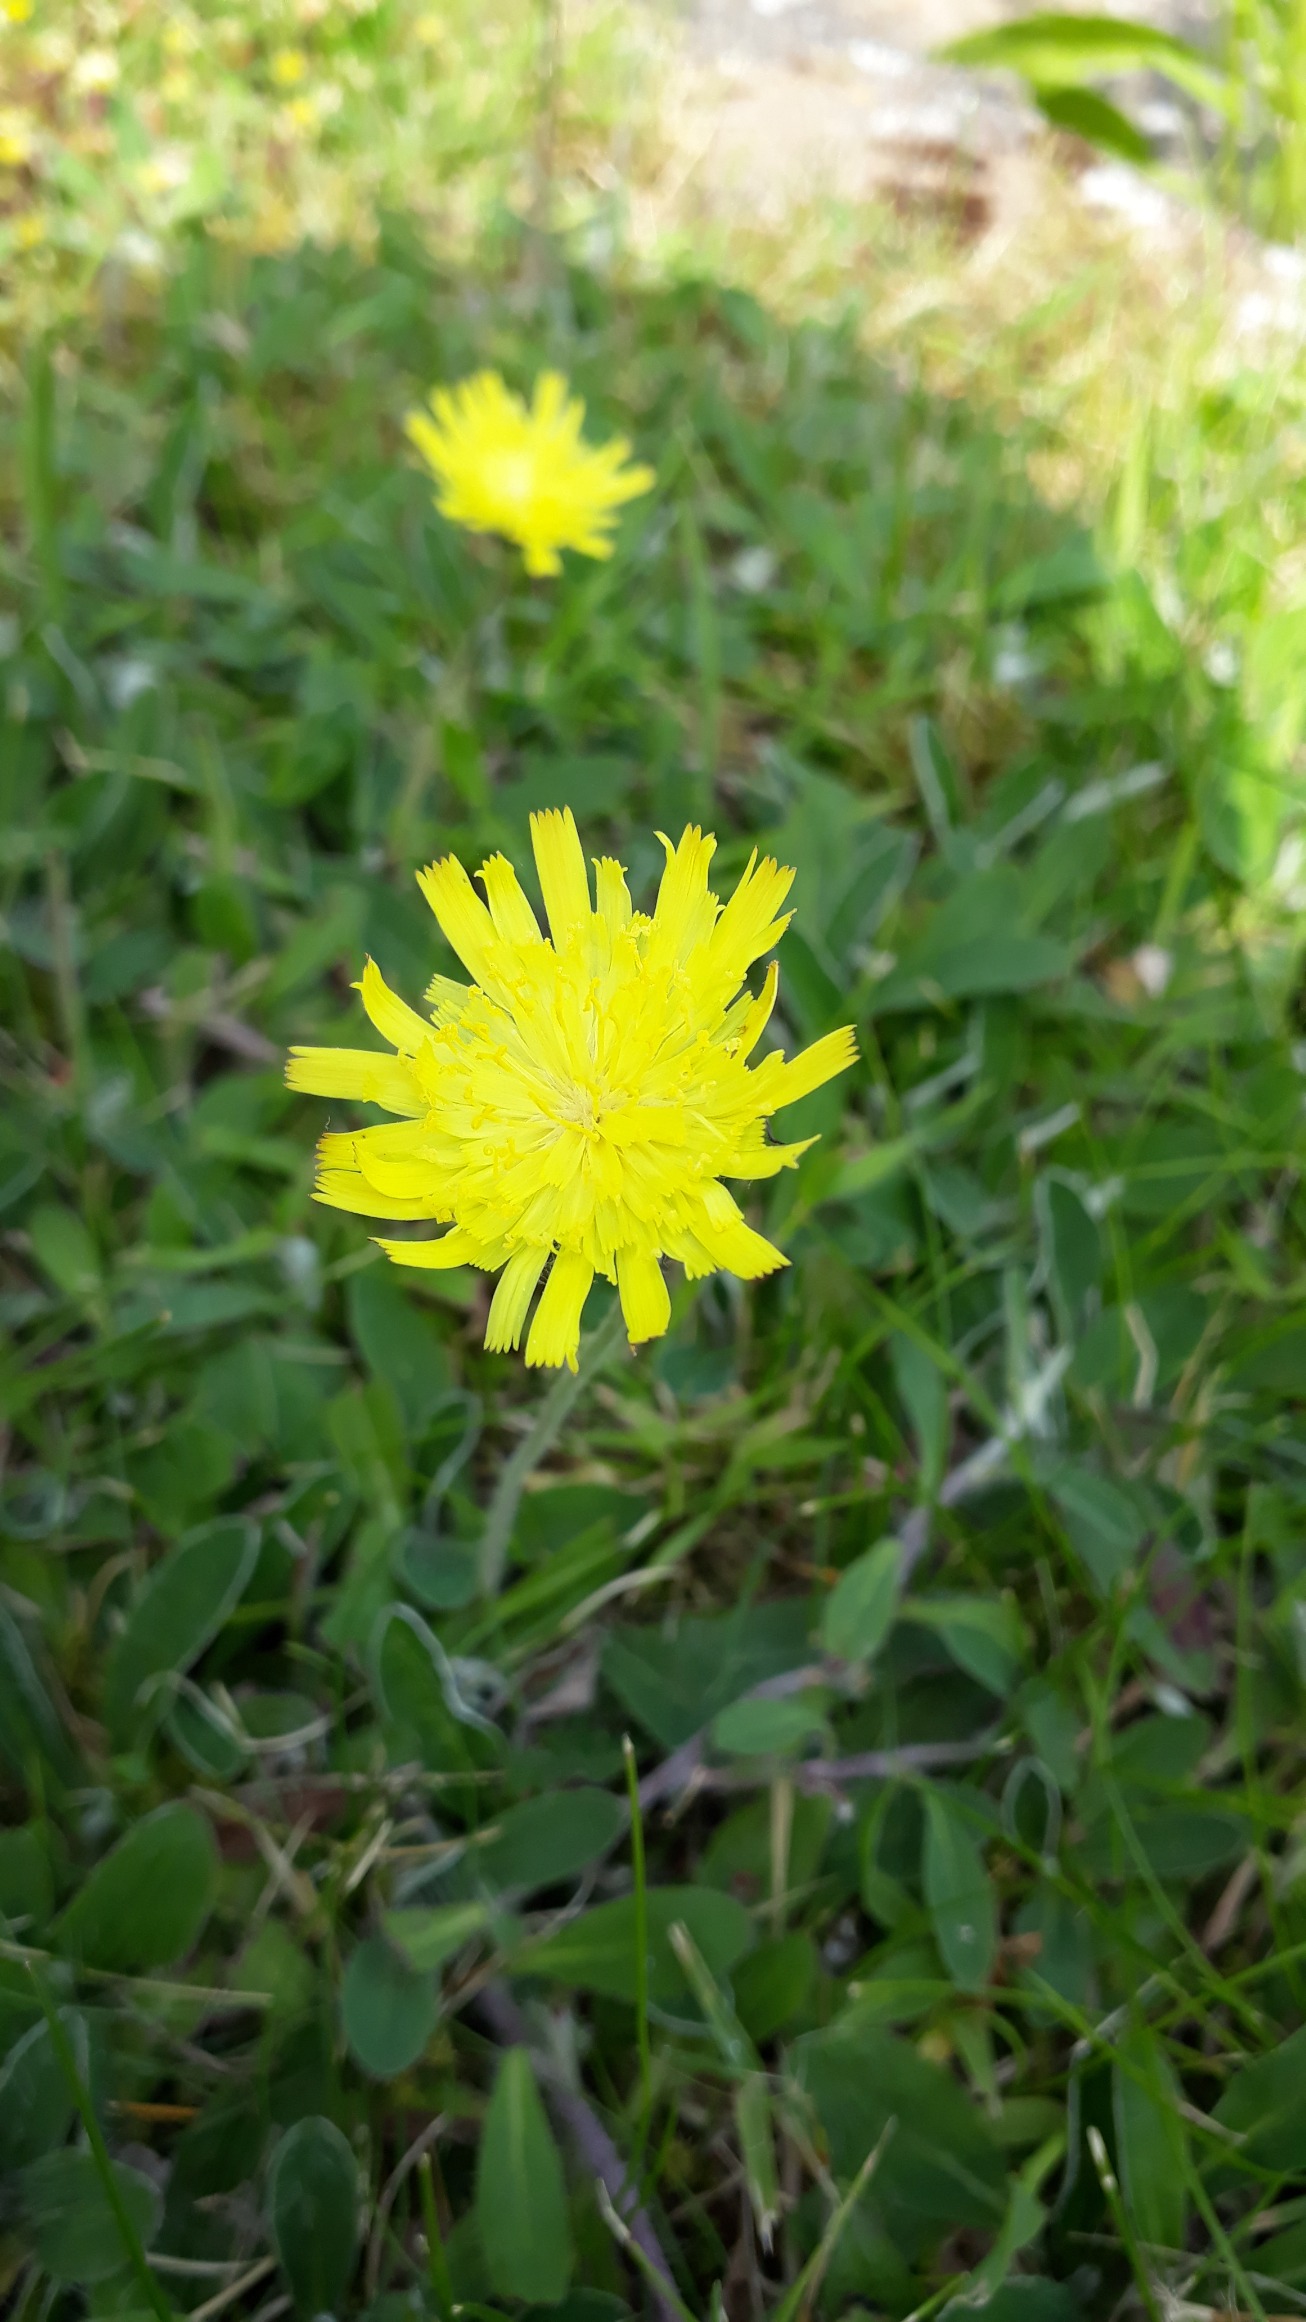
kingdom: Plantae
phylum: Tracheophyta
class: Magnoliopsida
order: Asterales
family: Asteraceae
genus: Pilosella
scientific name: Pilosella officinarum
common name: Håret høgeurt
